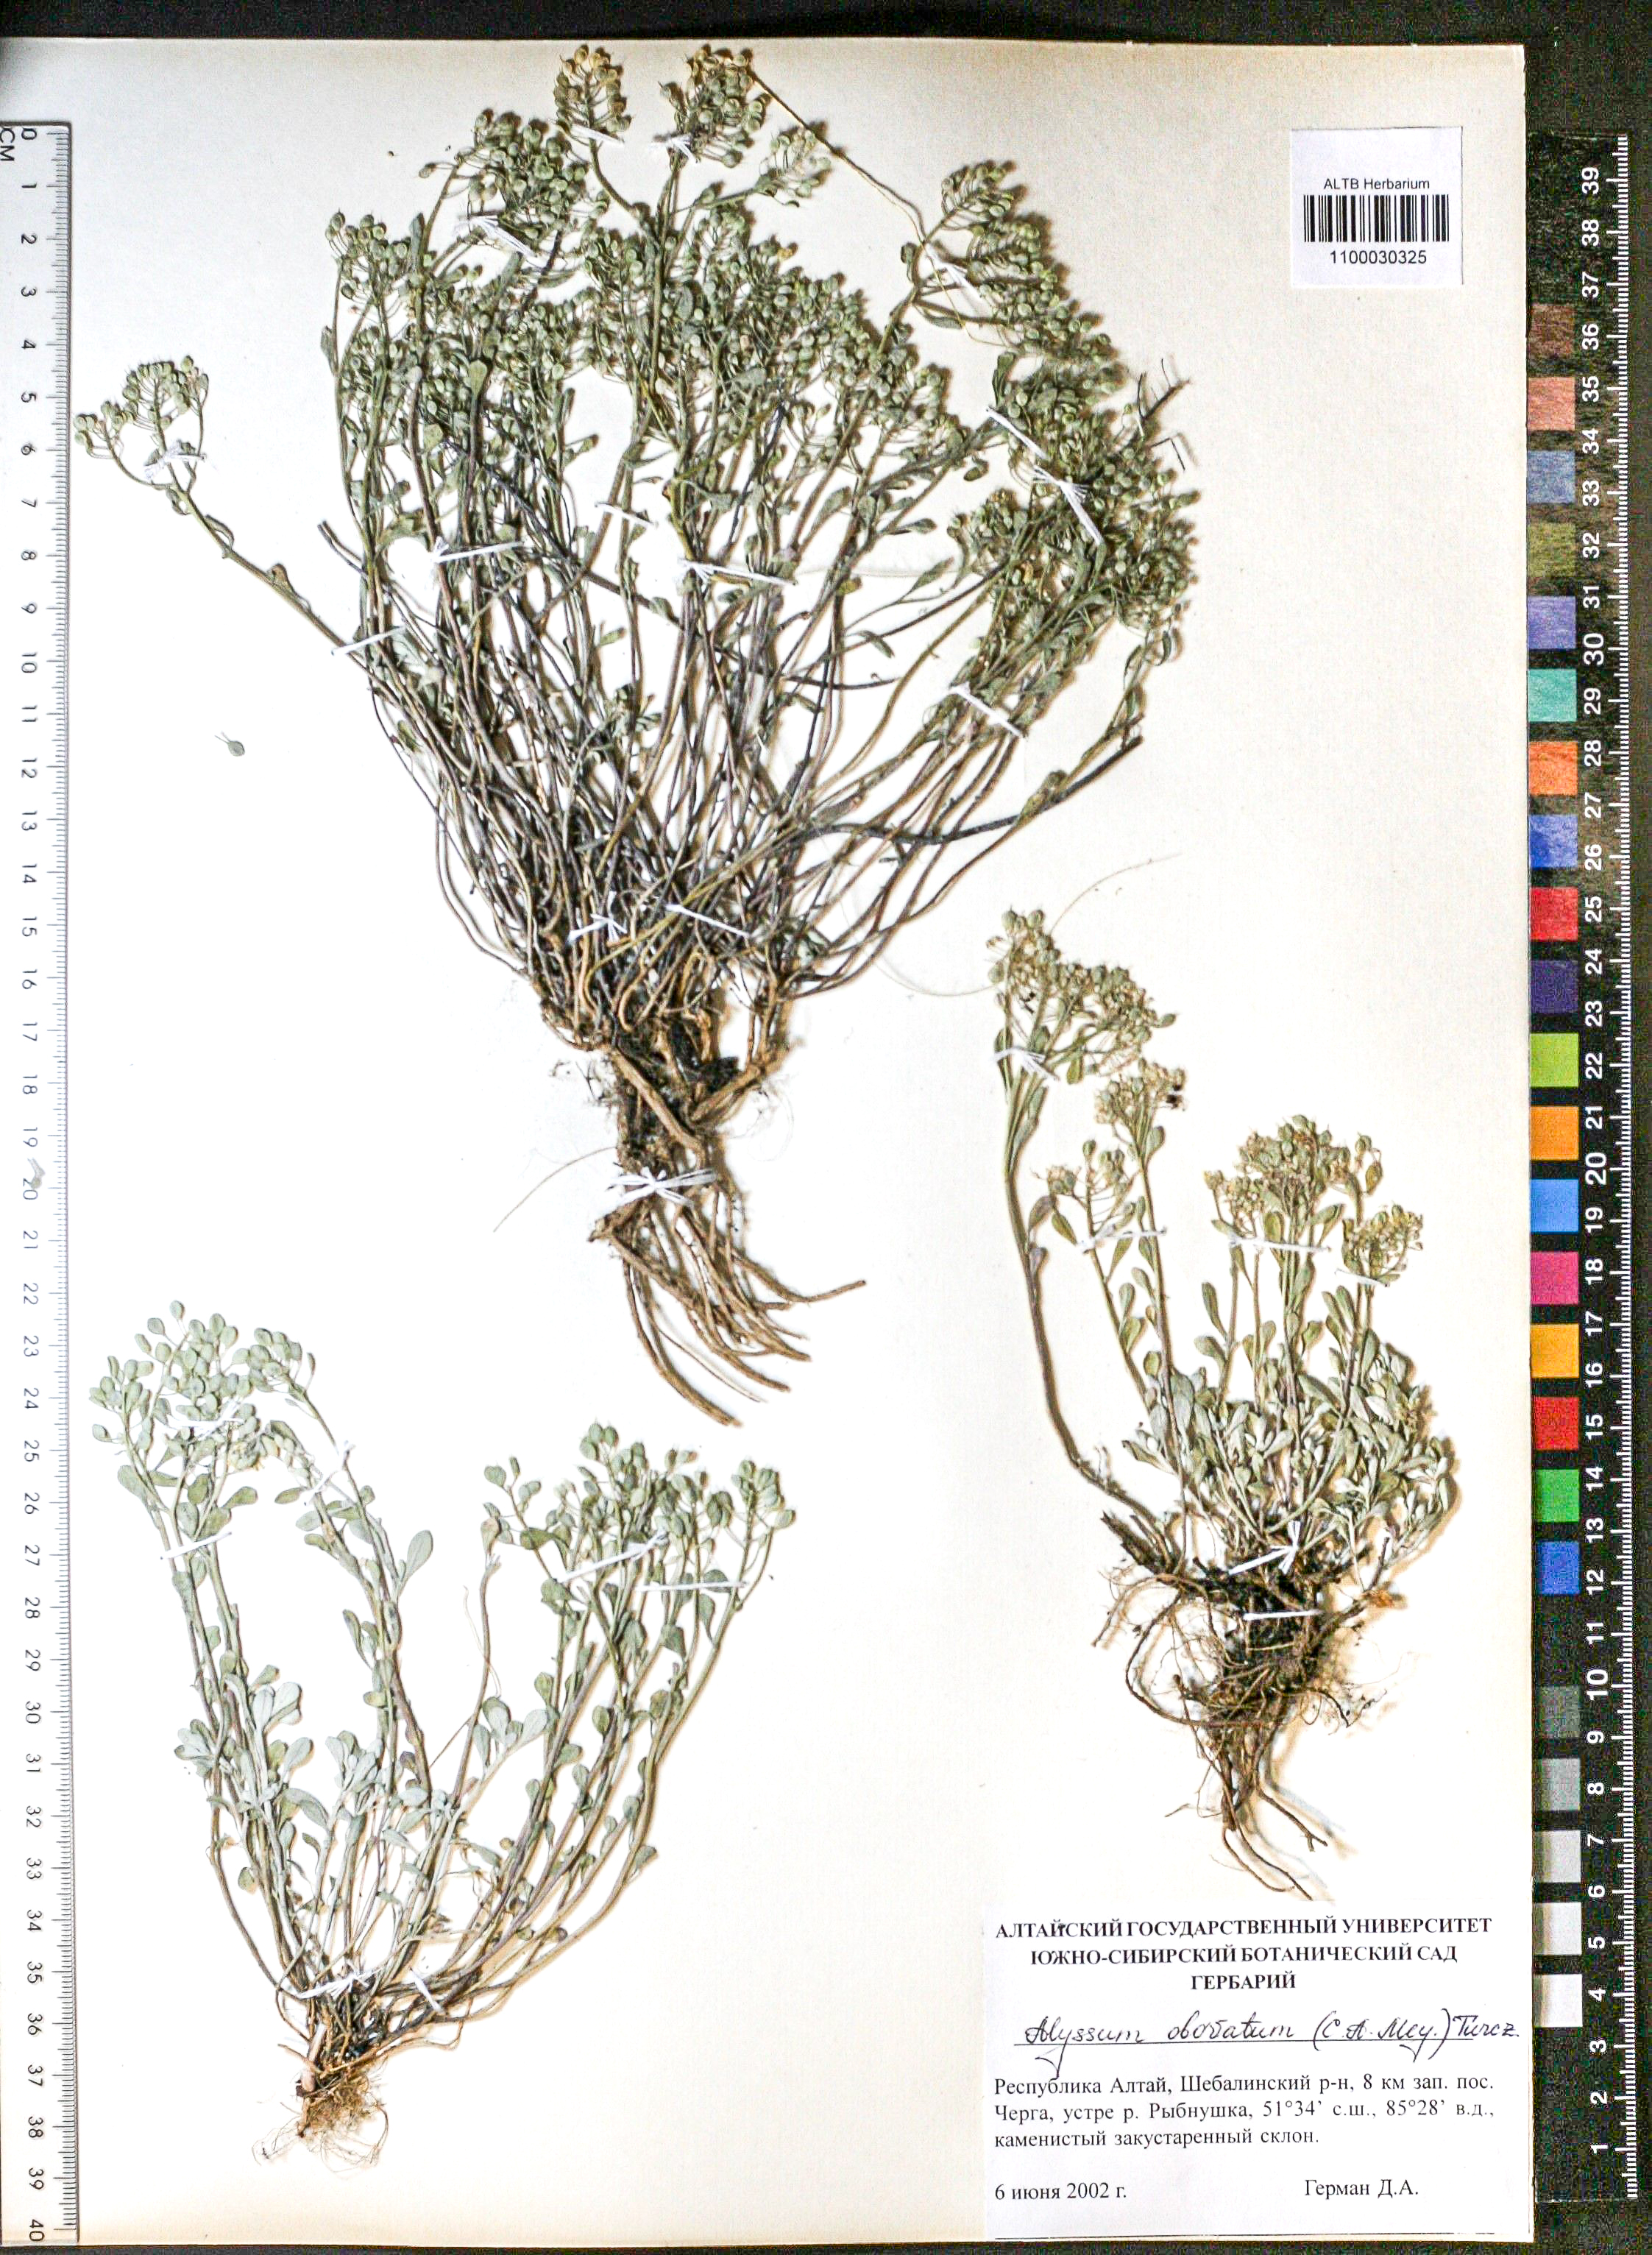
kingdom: Plantae
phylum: Tracheophyta
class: Magnoliopsida
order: Brassicales
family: Brassicaceae
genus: Odontarrhena
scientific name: Odontarrhena obovata
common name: American alyssum
